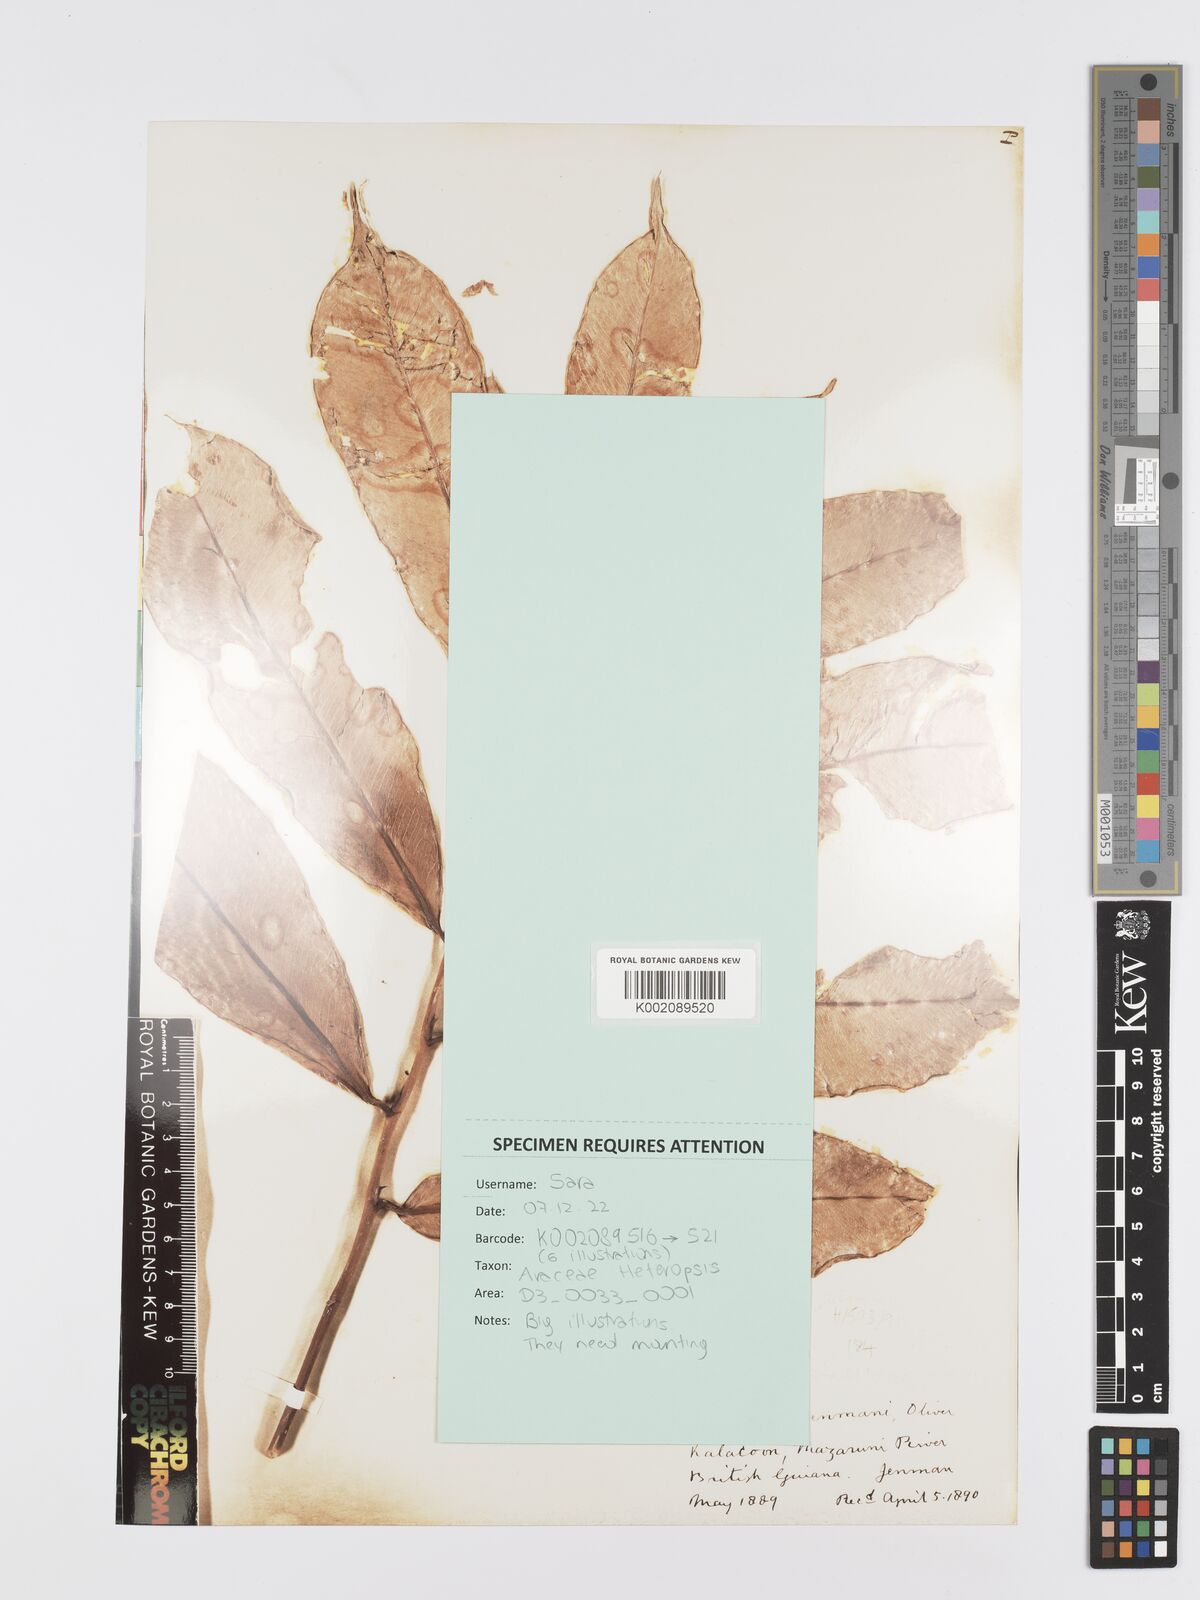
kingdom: Plantae
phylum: Tracheophyta
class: Liliopsida
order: Alismatales
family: Araceae
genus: Heteropsis
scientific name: Heteropsis flexuosa
